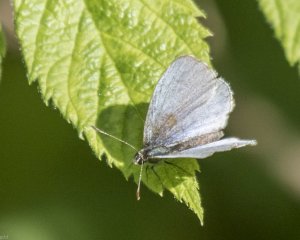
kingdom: Animalia
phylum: Arthropoda
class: Insecta
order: Lepidoptera
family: Lycaenidae
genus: Glaucopsyche
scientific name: Glaucopsyche lygdamus
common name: Silvery Blue
